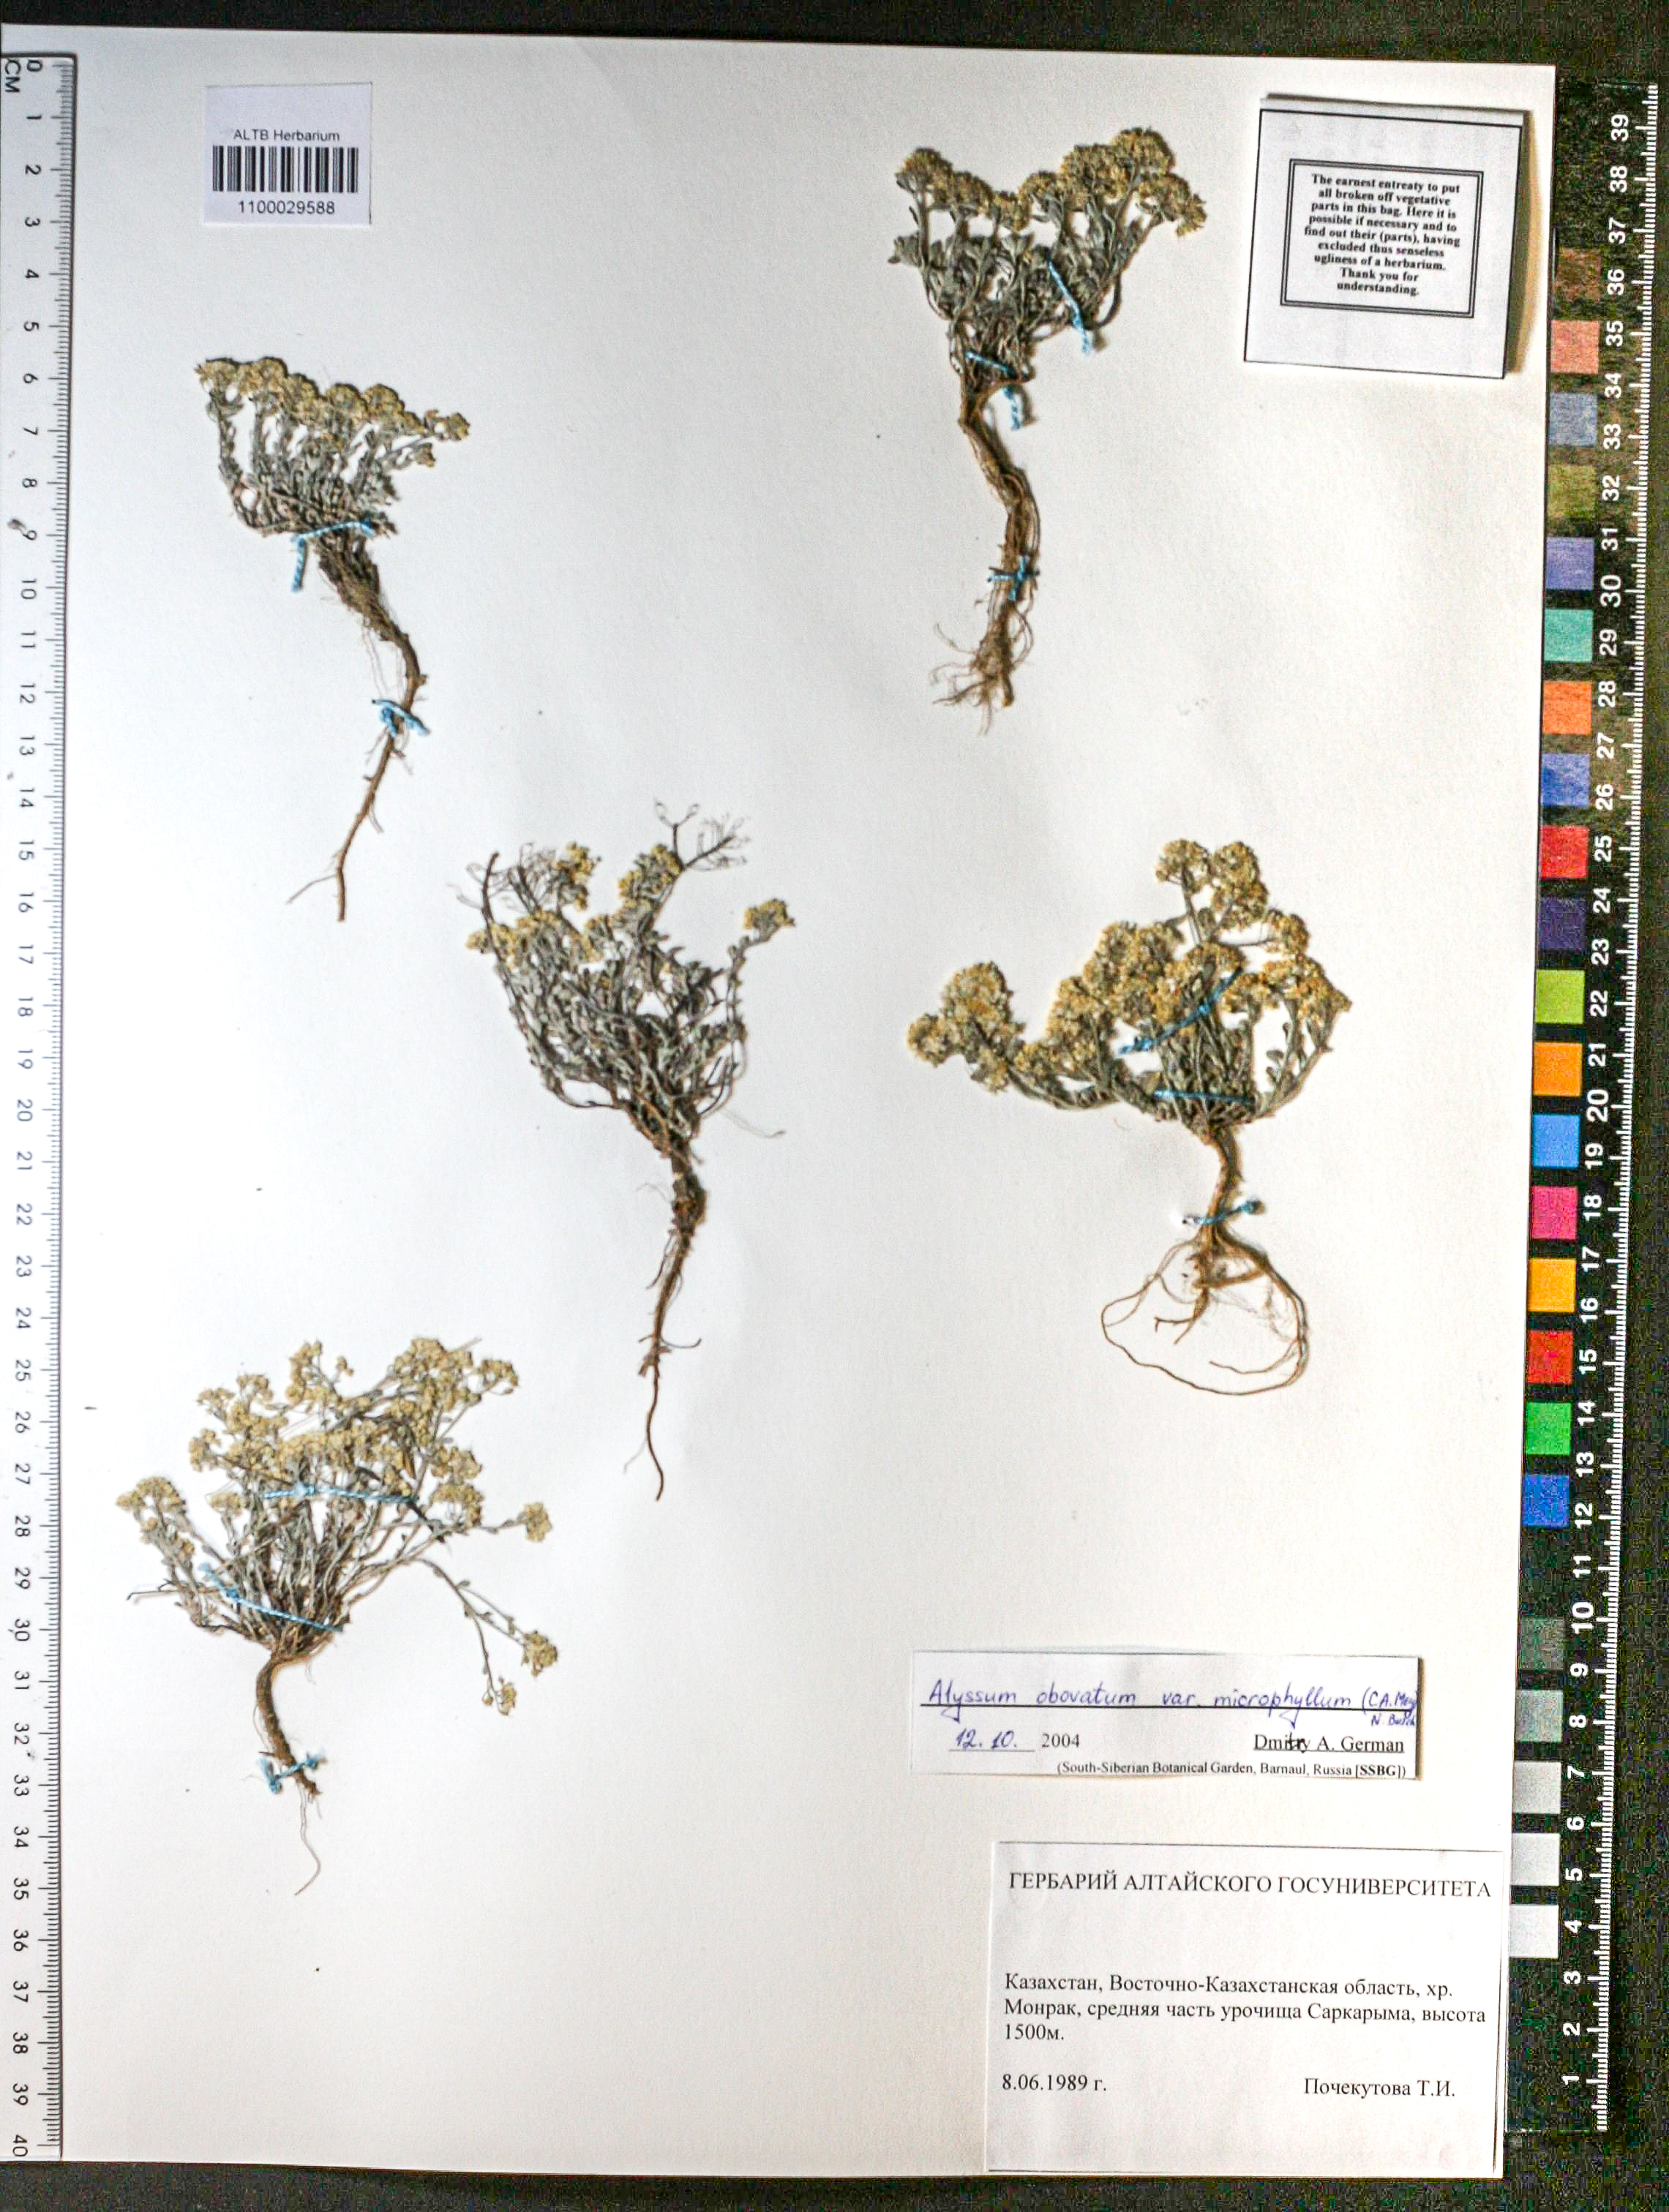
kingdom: Plantae
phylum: Tracheophyta
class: Magnoliopsida
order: Brassicales
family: Brassicaceae
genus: Odontarrhena
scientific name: Odontarrhena obovata
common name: American alyssum
